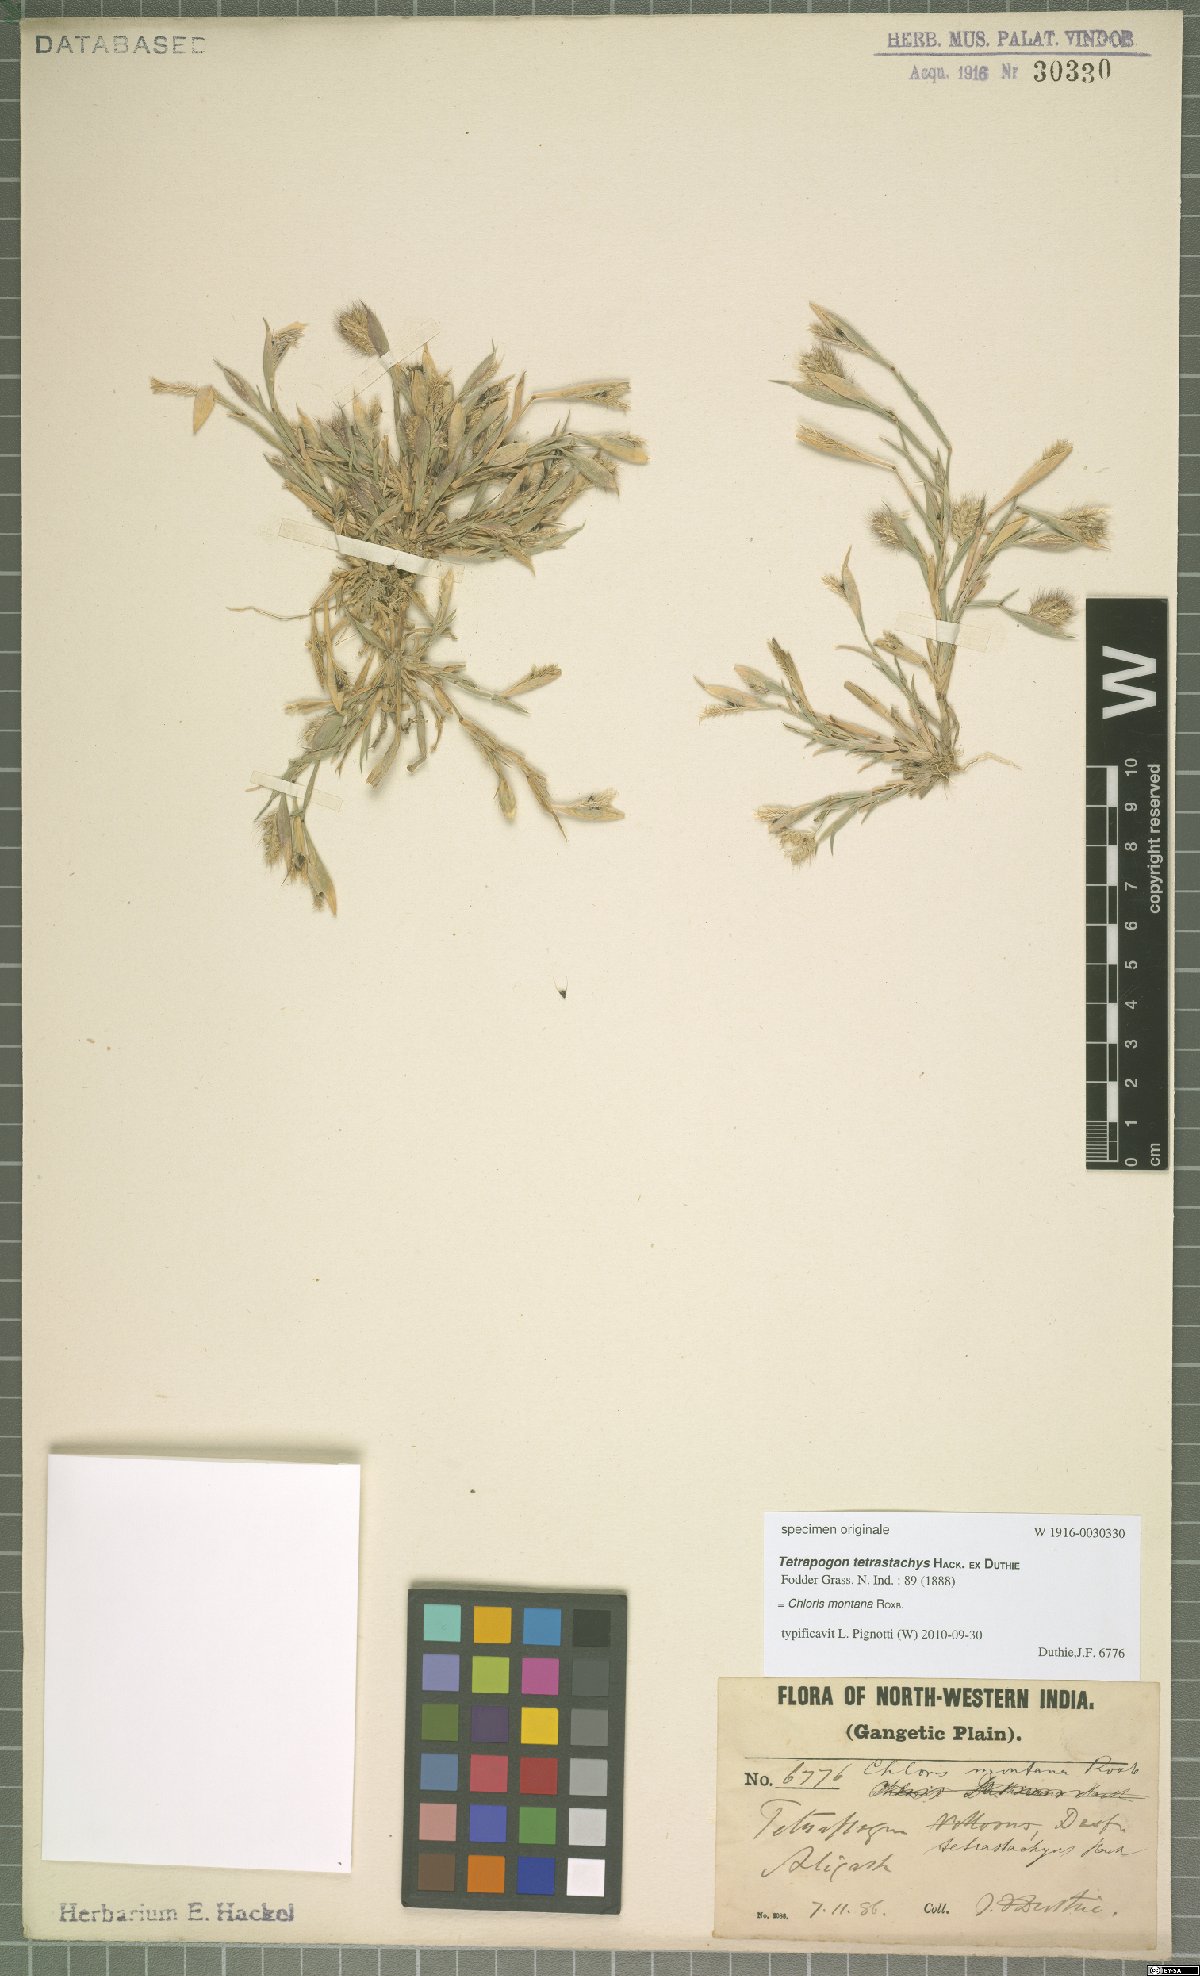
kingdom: Plantae
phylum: Tracheophyta
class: Liliopsida
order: Poales
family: Poaceae
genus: Chloris
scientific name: Chloris montana
